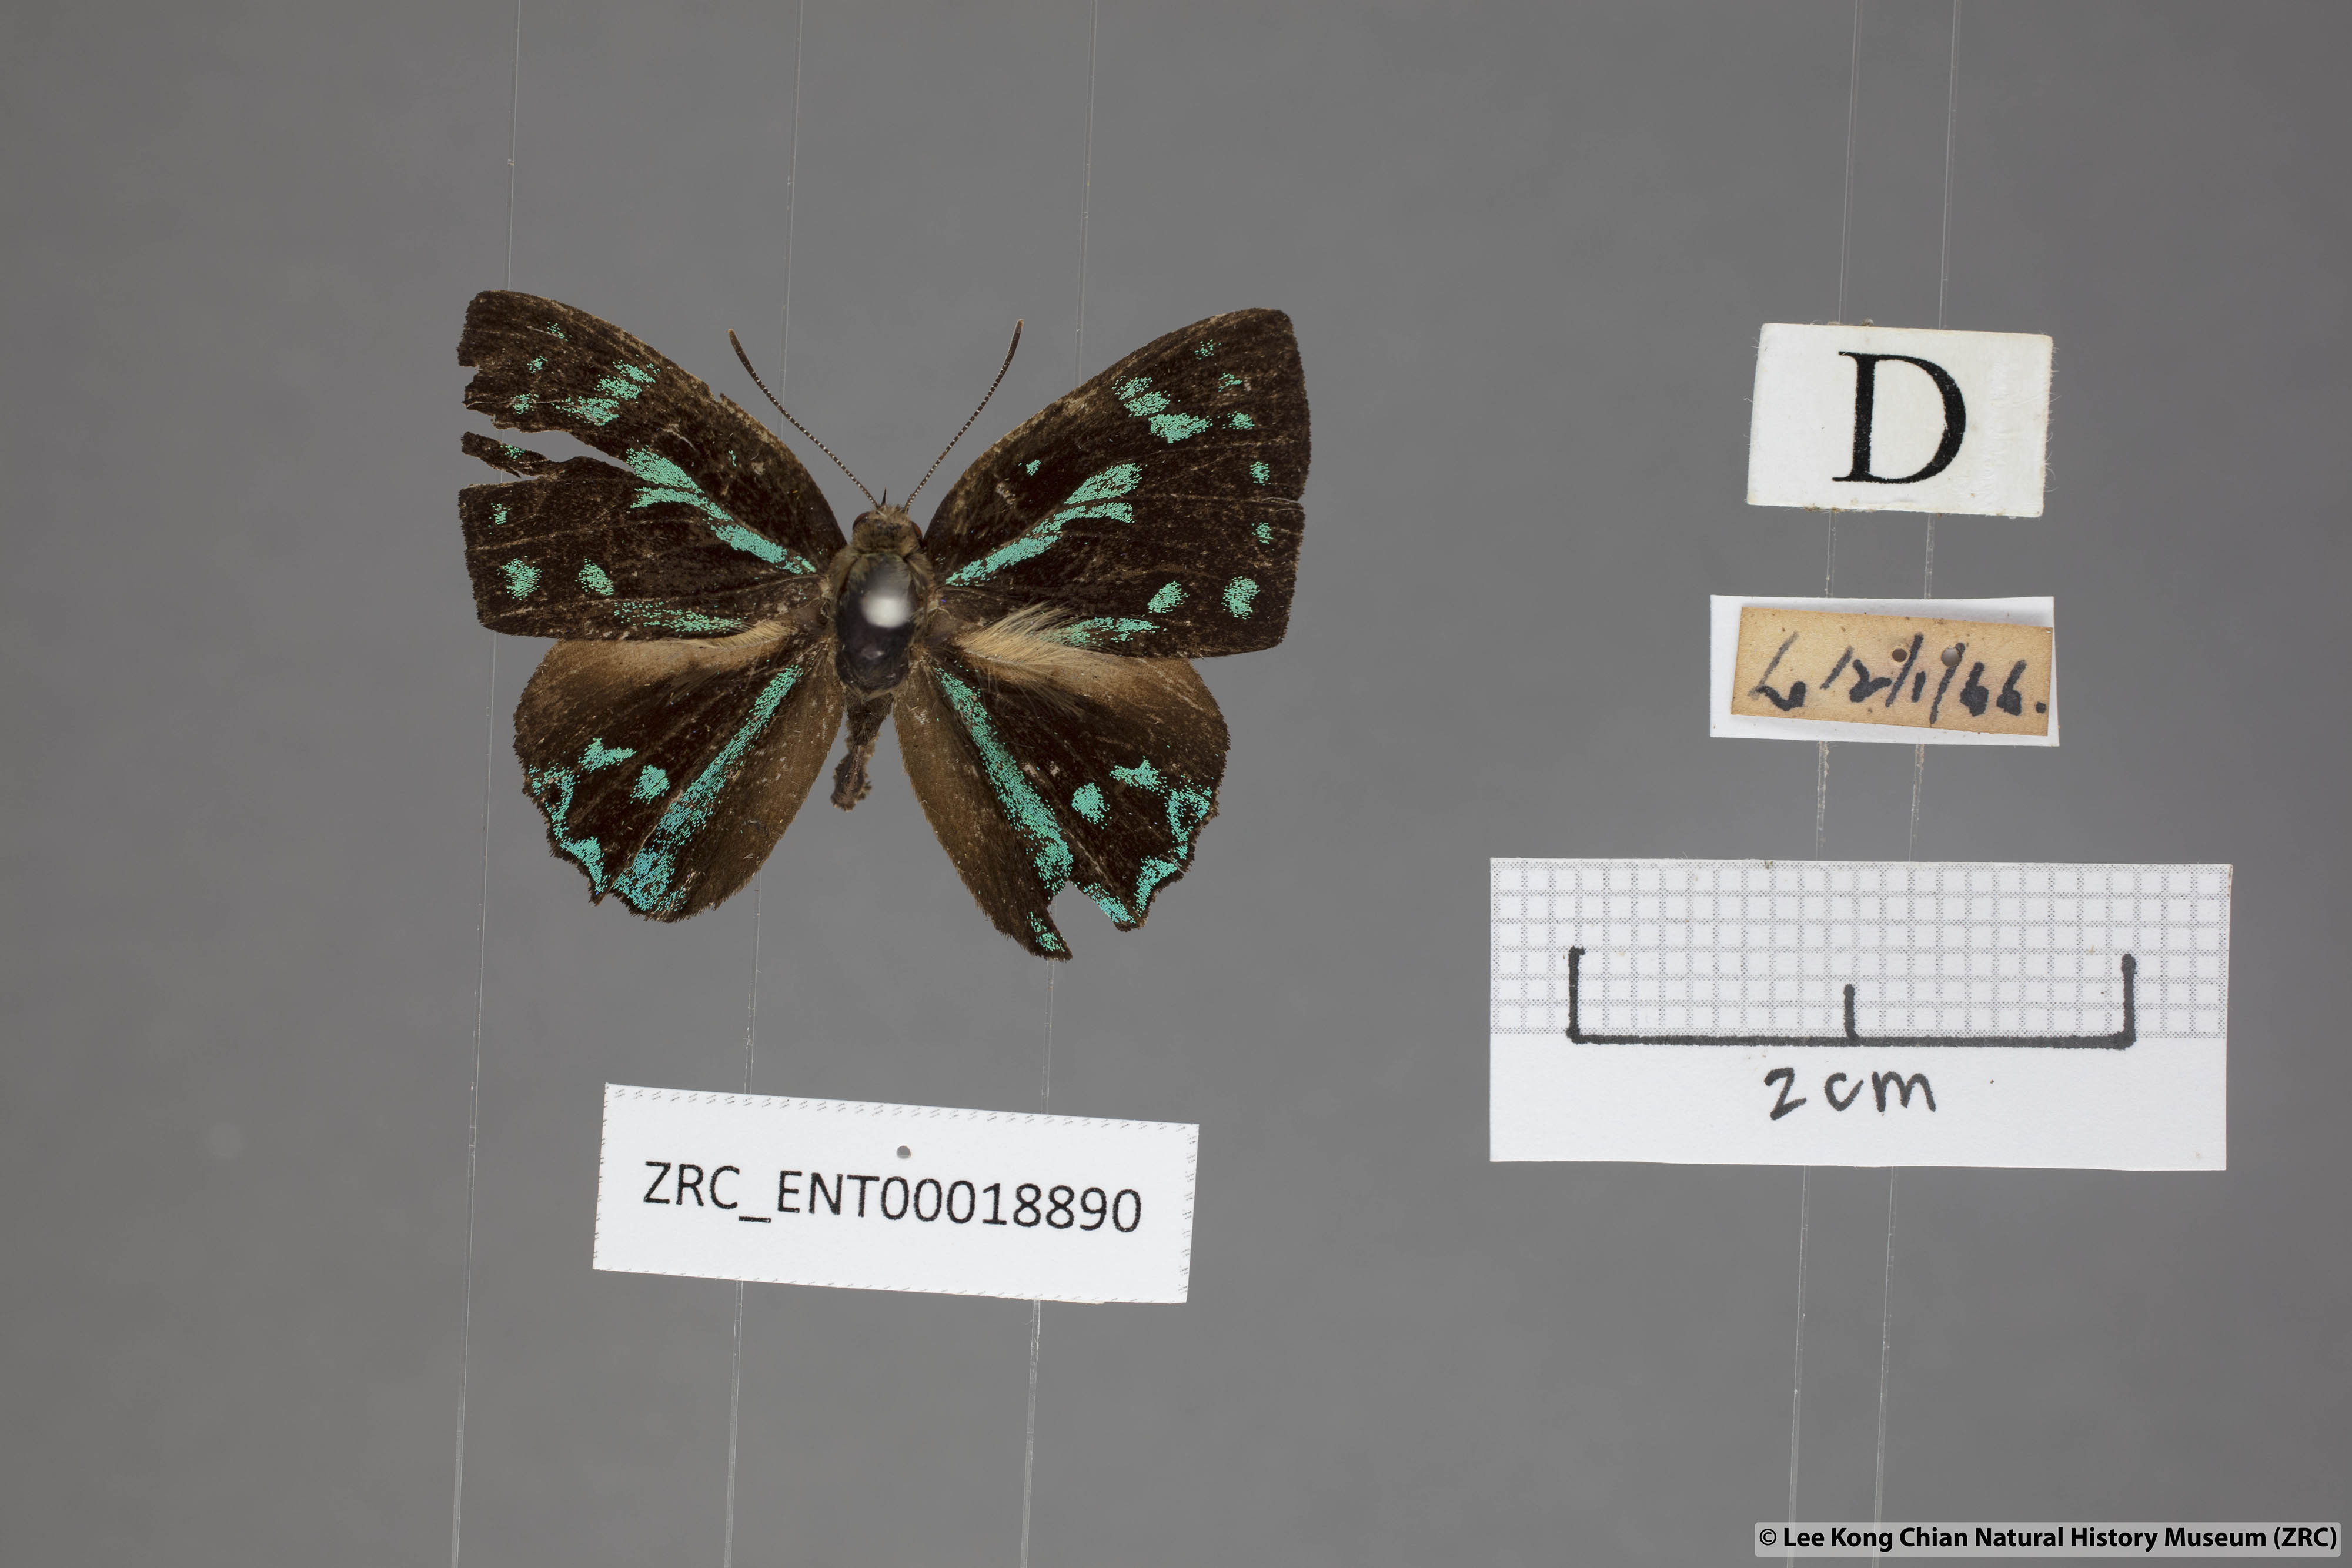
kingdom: Animalia
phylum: Arthropoda
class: Insecta
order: Lepidoptera
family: Lycaenidae
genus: Simiskina
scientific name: Simiskina
